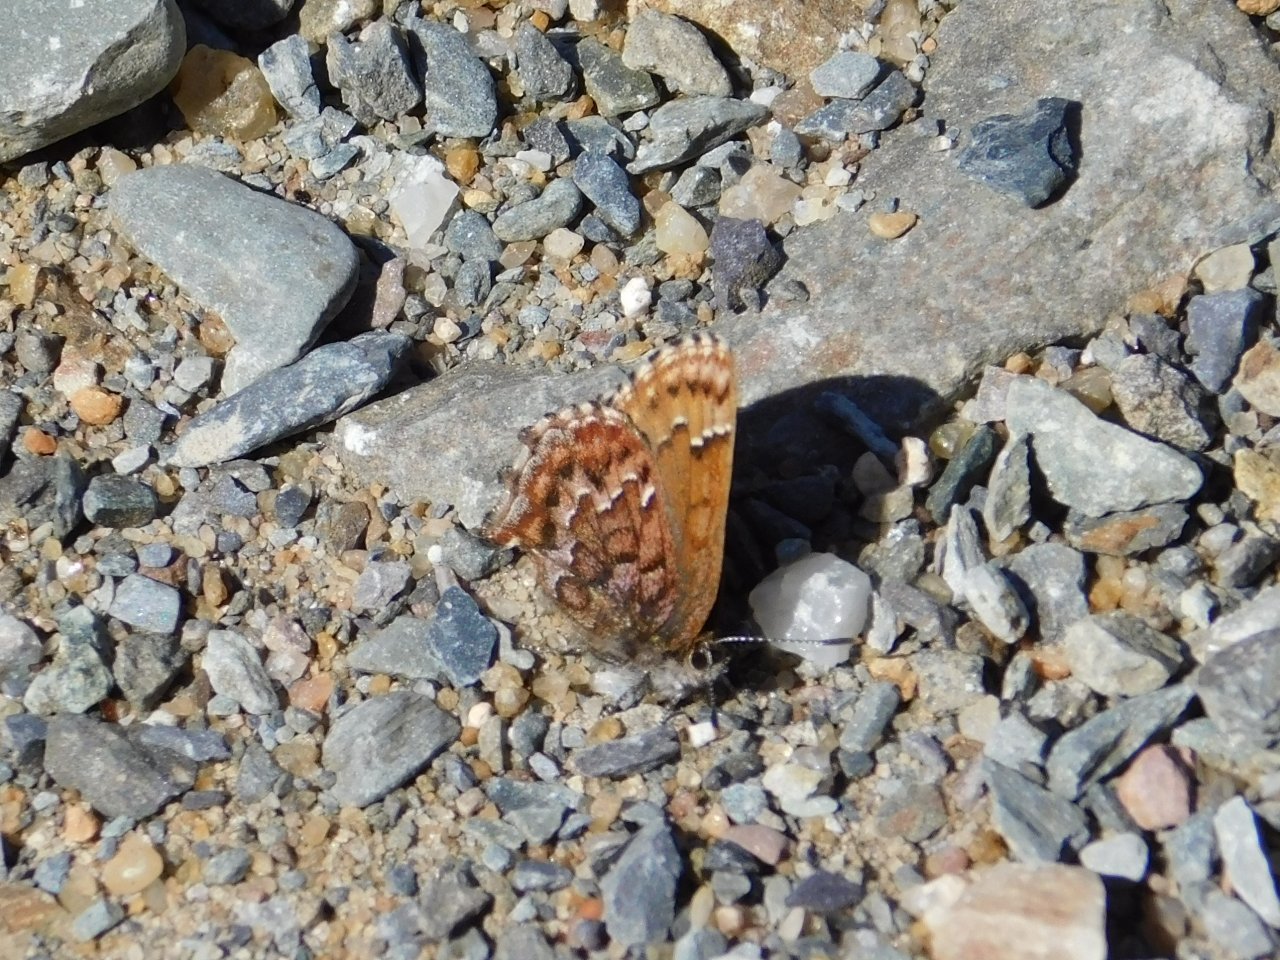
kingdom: Animalia
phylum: Arthropoda
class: Insecta
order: Lepidoptera
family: Lycaenidae
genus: Incisalia
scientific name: Incisalia niphon
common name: Eastern Pine Elfin
